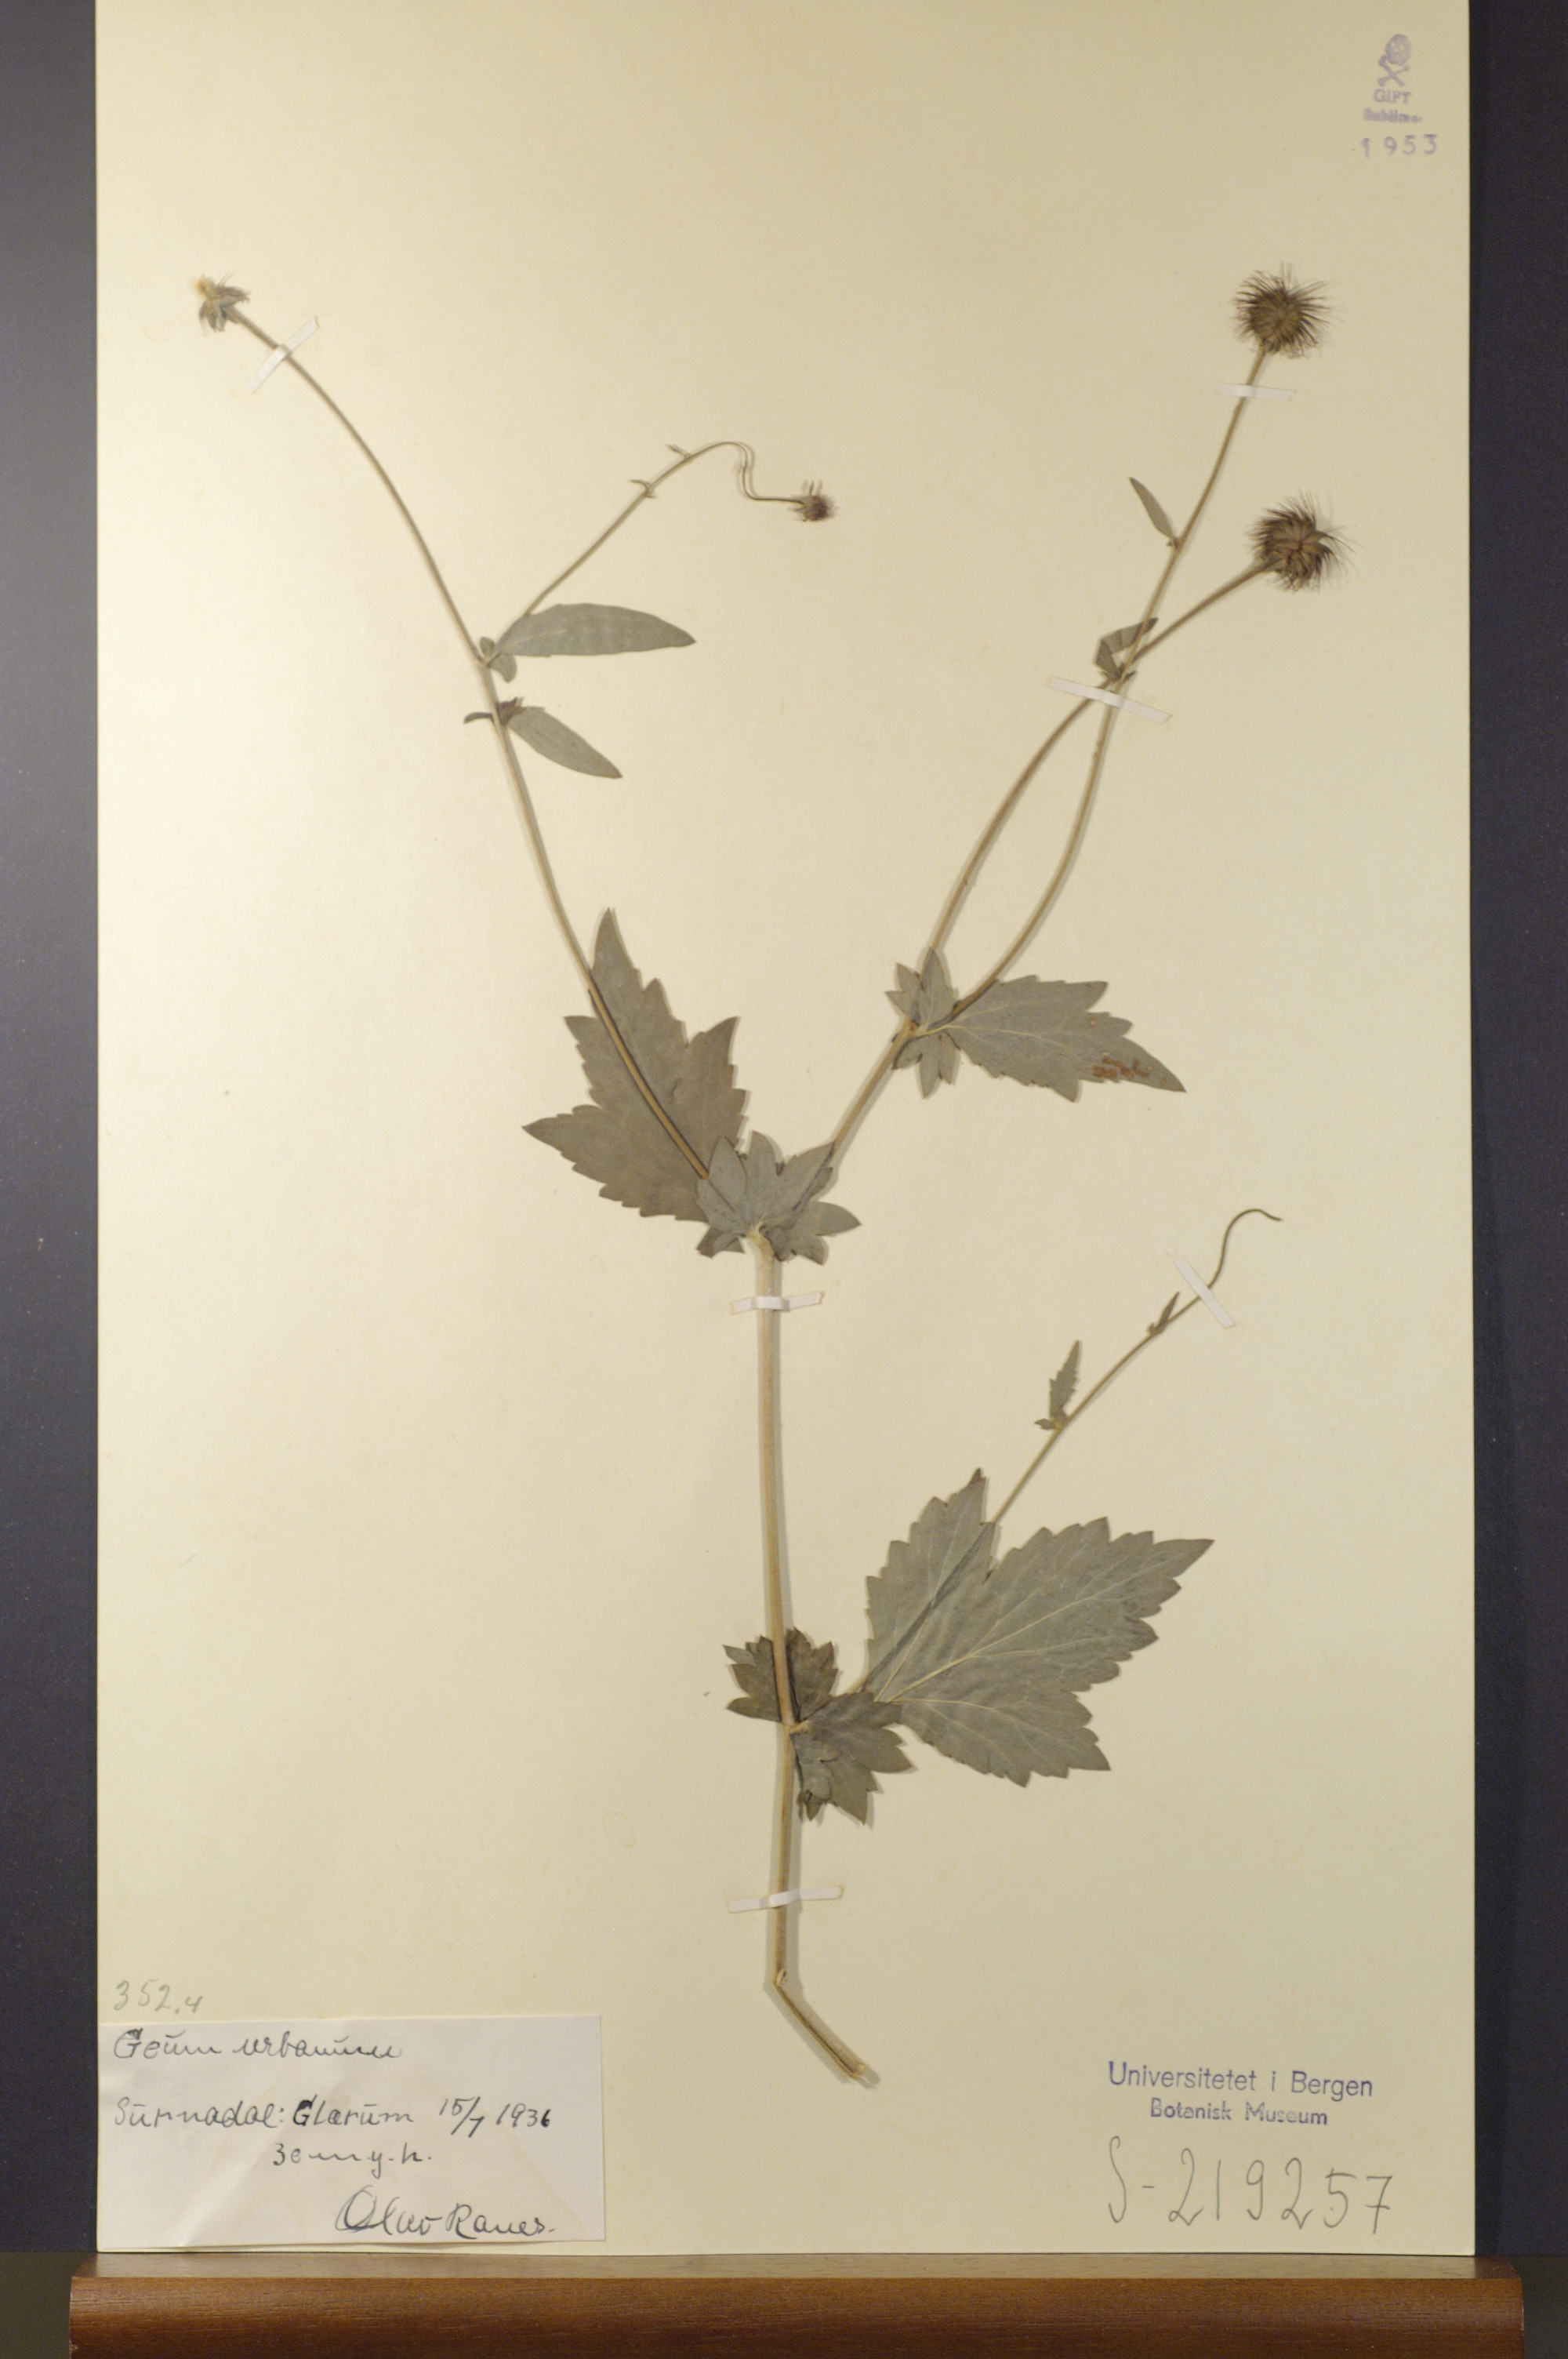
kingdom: Plantae
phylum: Tracheophyta
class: Magnoliopsida
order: Rosales
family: Rosaceae
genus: Geum
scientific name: Geum urbanum
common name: Wood avens
